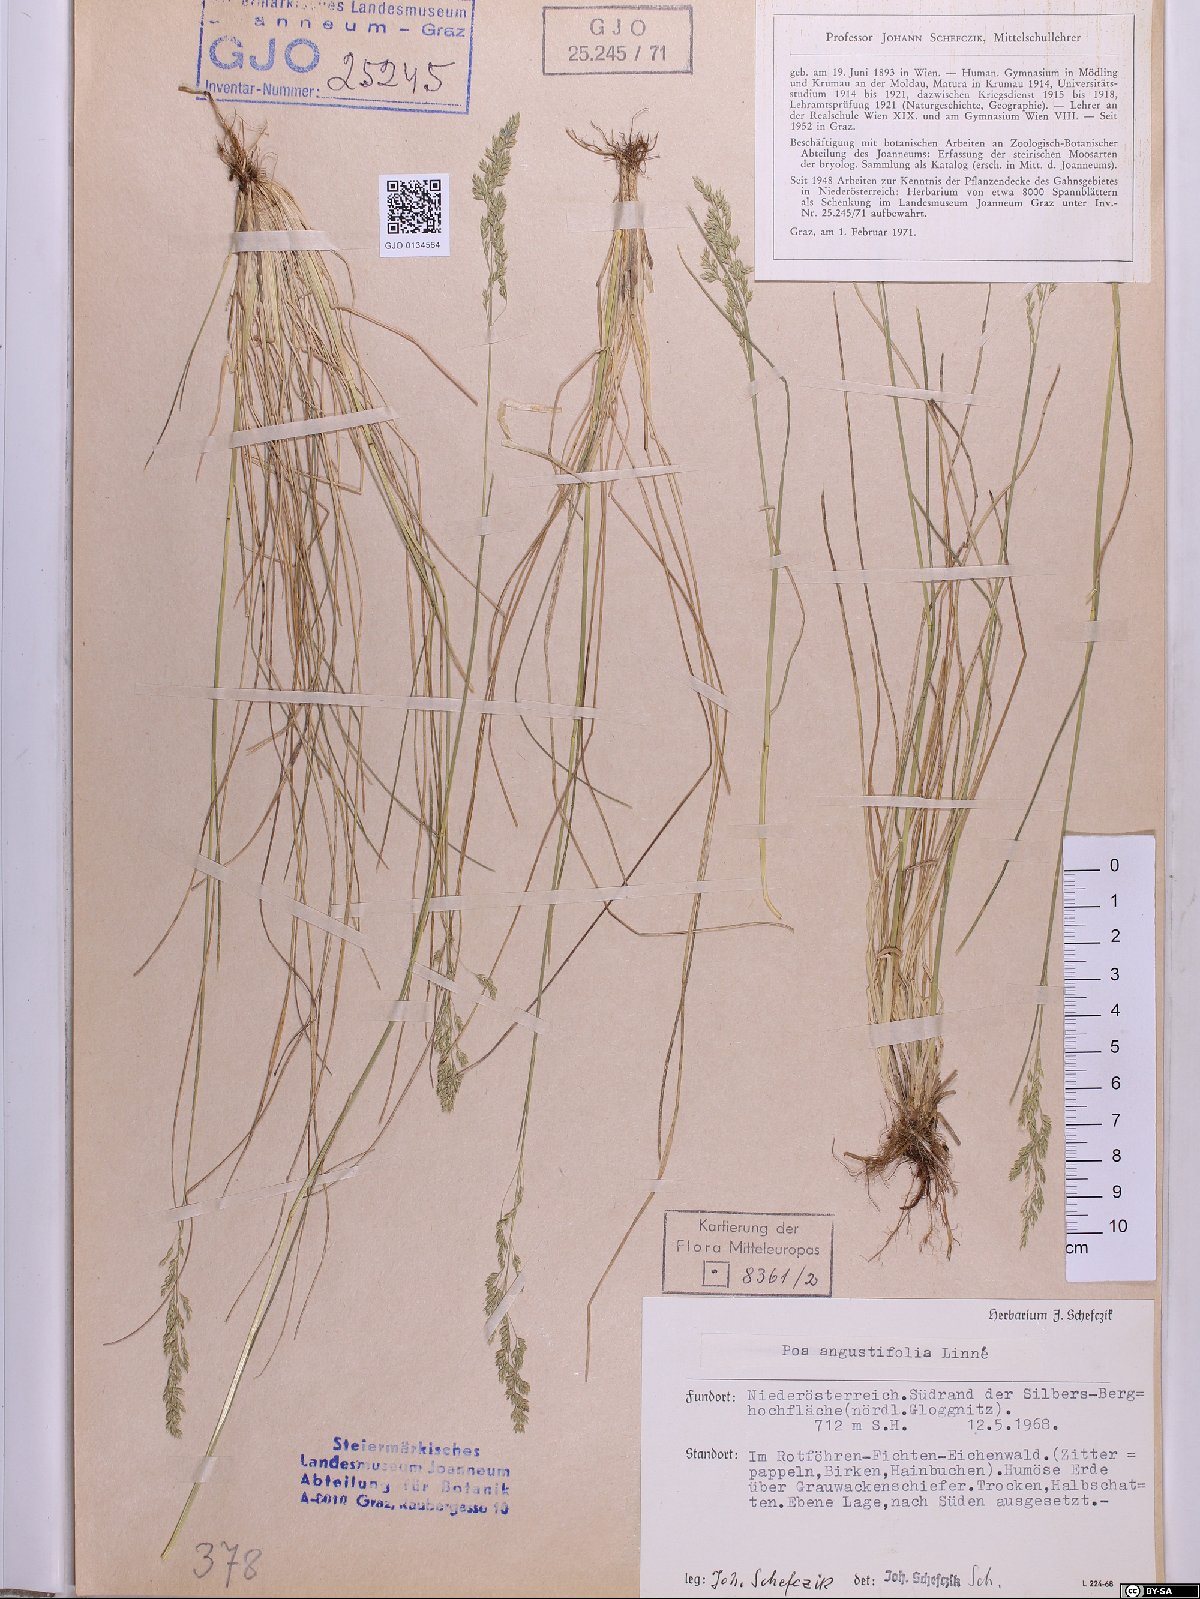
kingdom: Plantae
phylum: Tracheophyta
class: Liliopsida
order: Poales
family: Poaceae
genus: Poa
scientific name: Poa angustifolia
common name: Narrow-leaved meadow-grass
